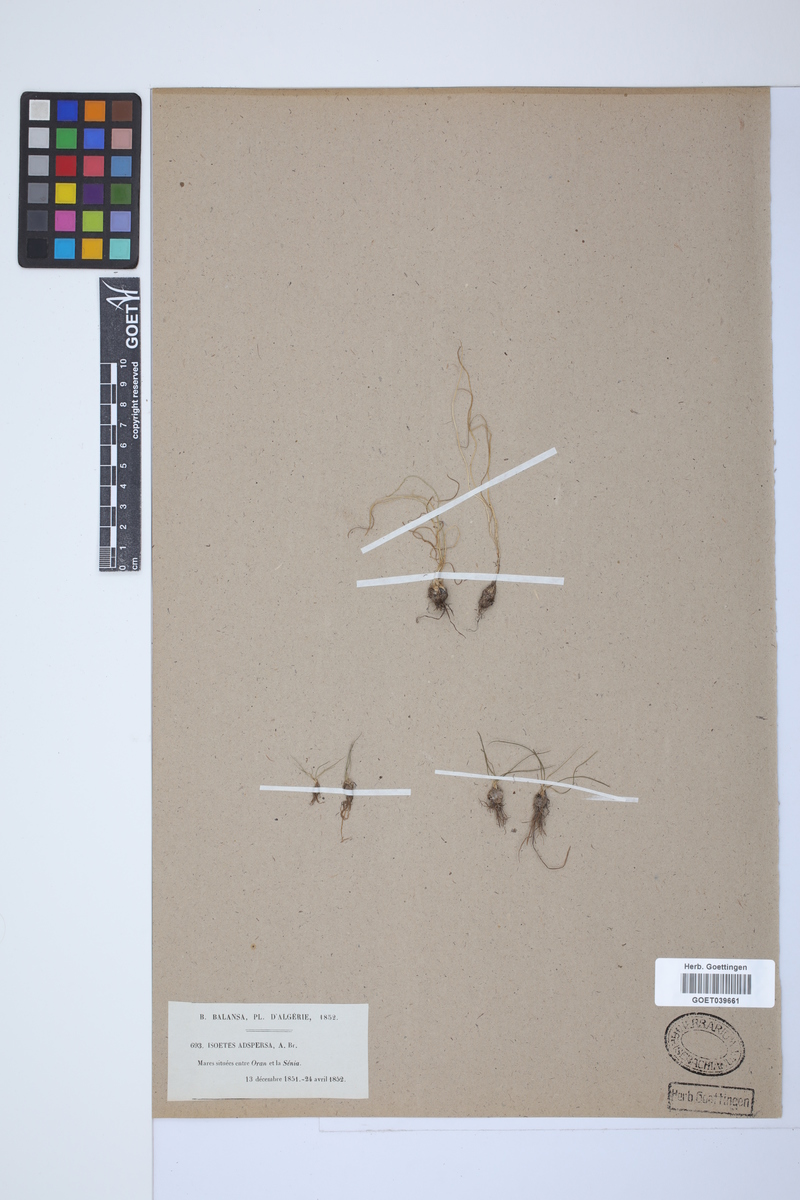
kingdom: Plantae
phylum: Tracheophyta
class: Lycopodiopsida
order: Isoetales
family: Isoetaceae
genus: Isoetes
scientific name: Isoetes longissima
